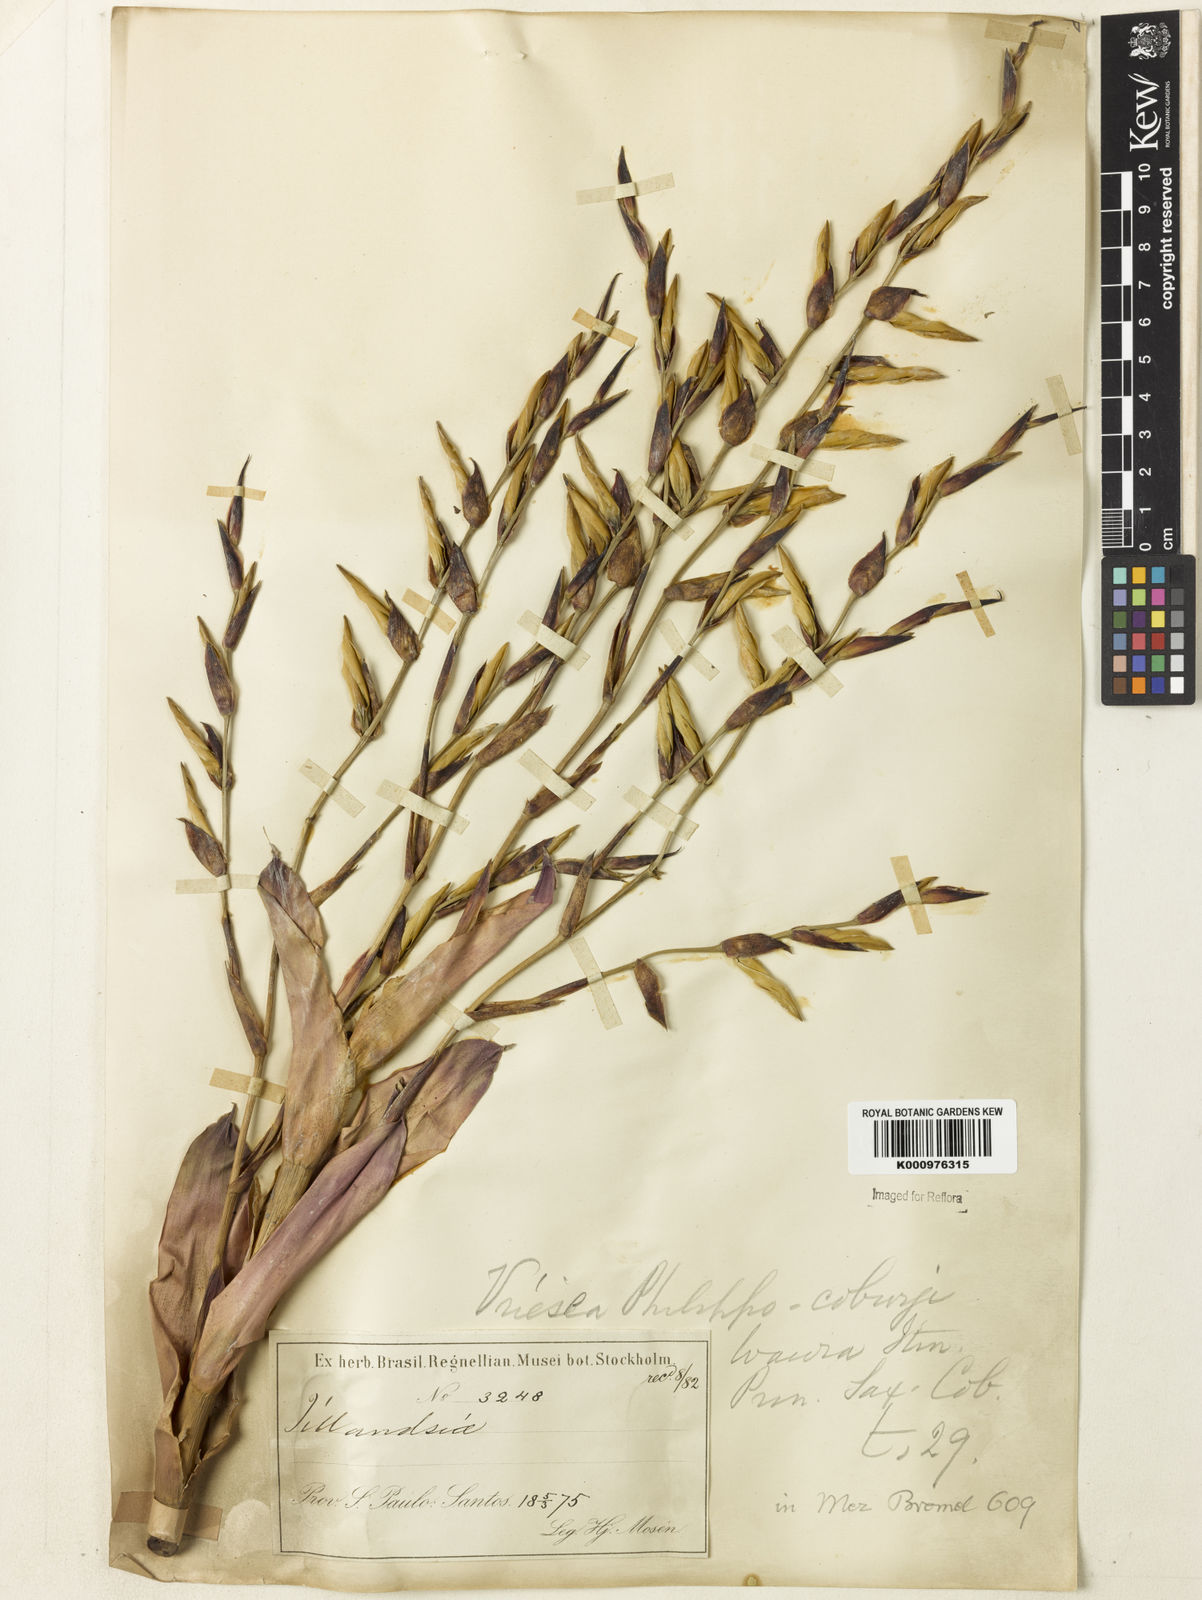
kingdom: Plantae
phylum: Tracheophyta
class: Liliopsida
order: Poales
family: Bromeliaceae
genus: Vriesea
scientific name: Vriesea philippocoburgi
